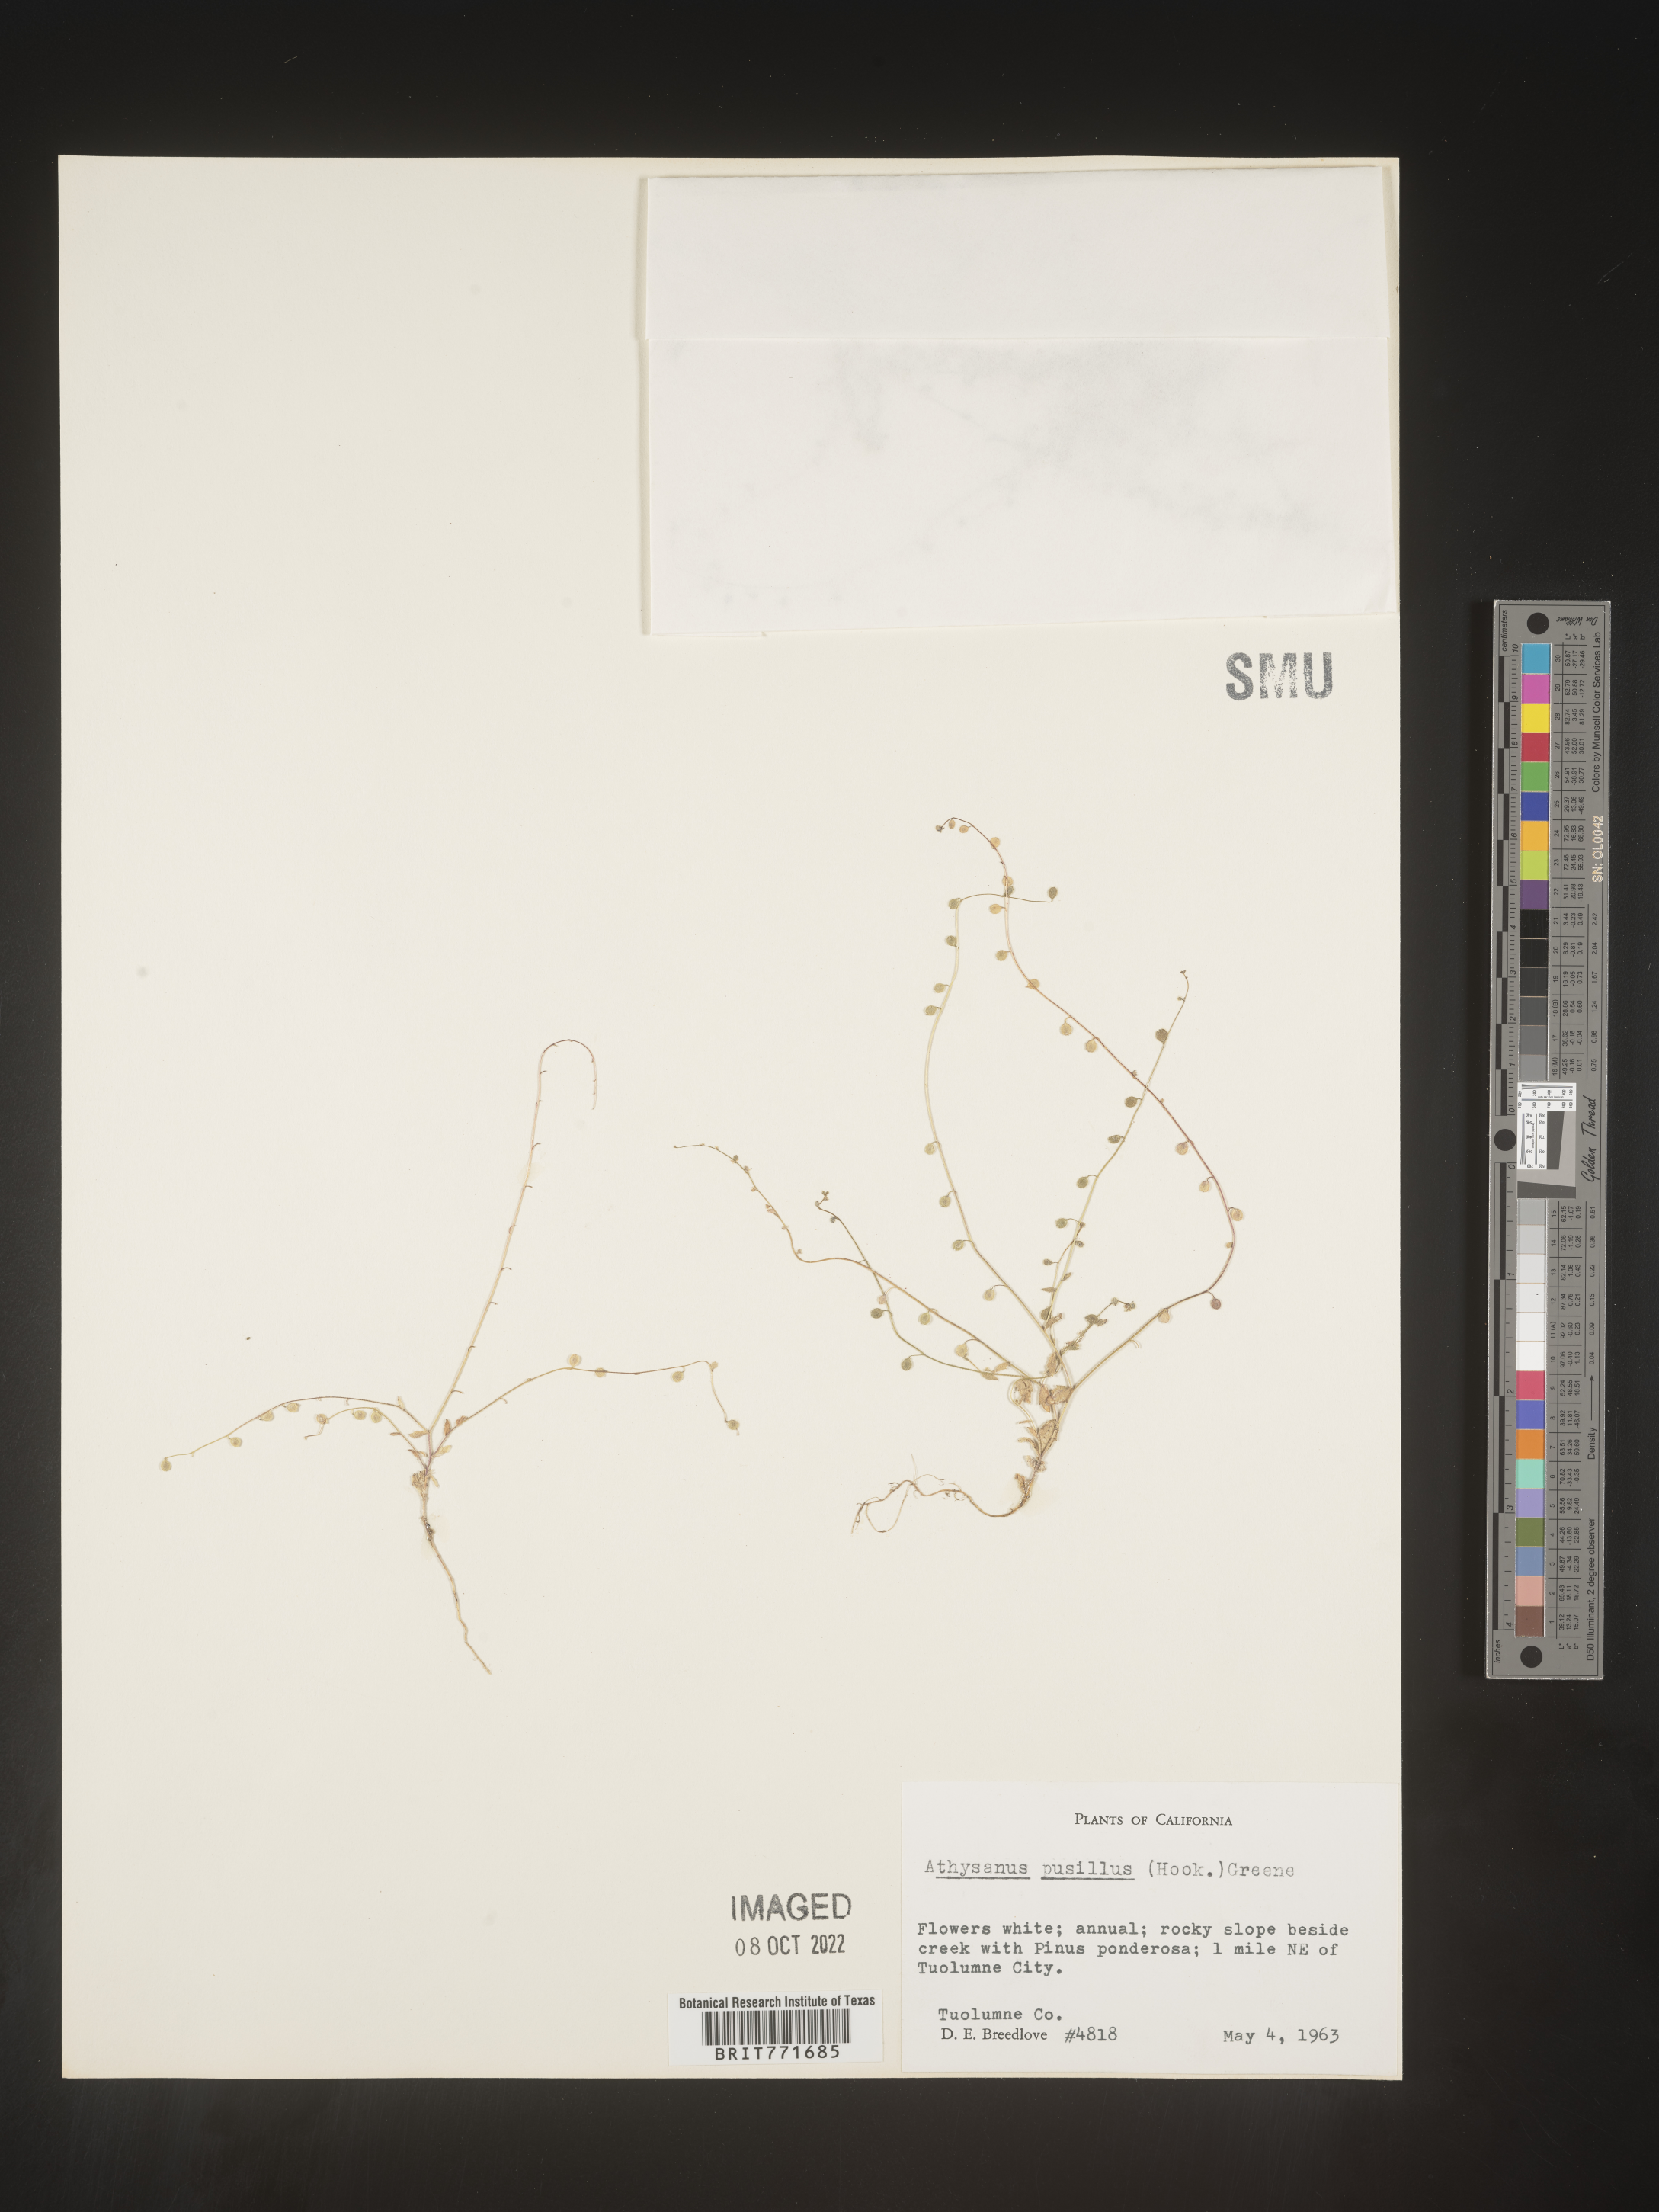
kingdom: Plantae
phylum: Tracheophyta
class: Magnoliopsida
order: Brassicales
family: Brassicaceae
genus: Athysanus
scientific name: Athysanus
